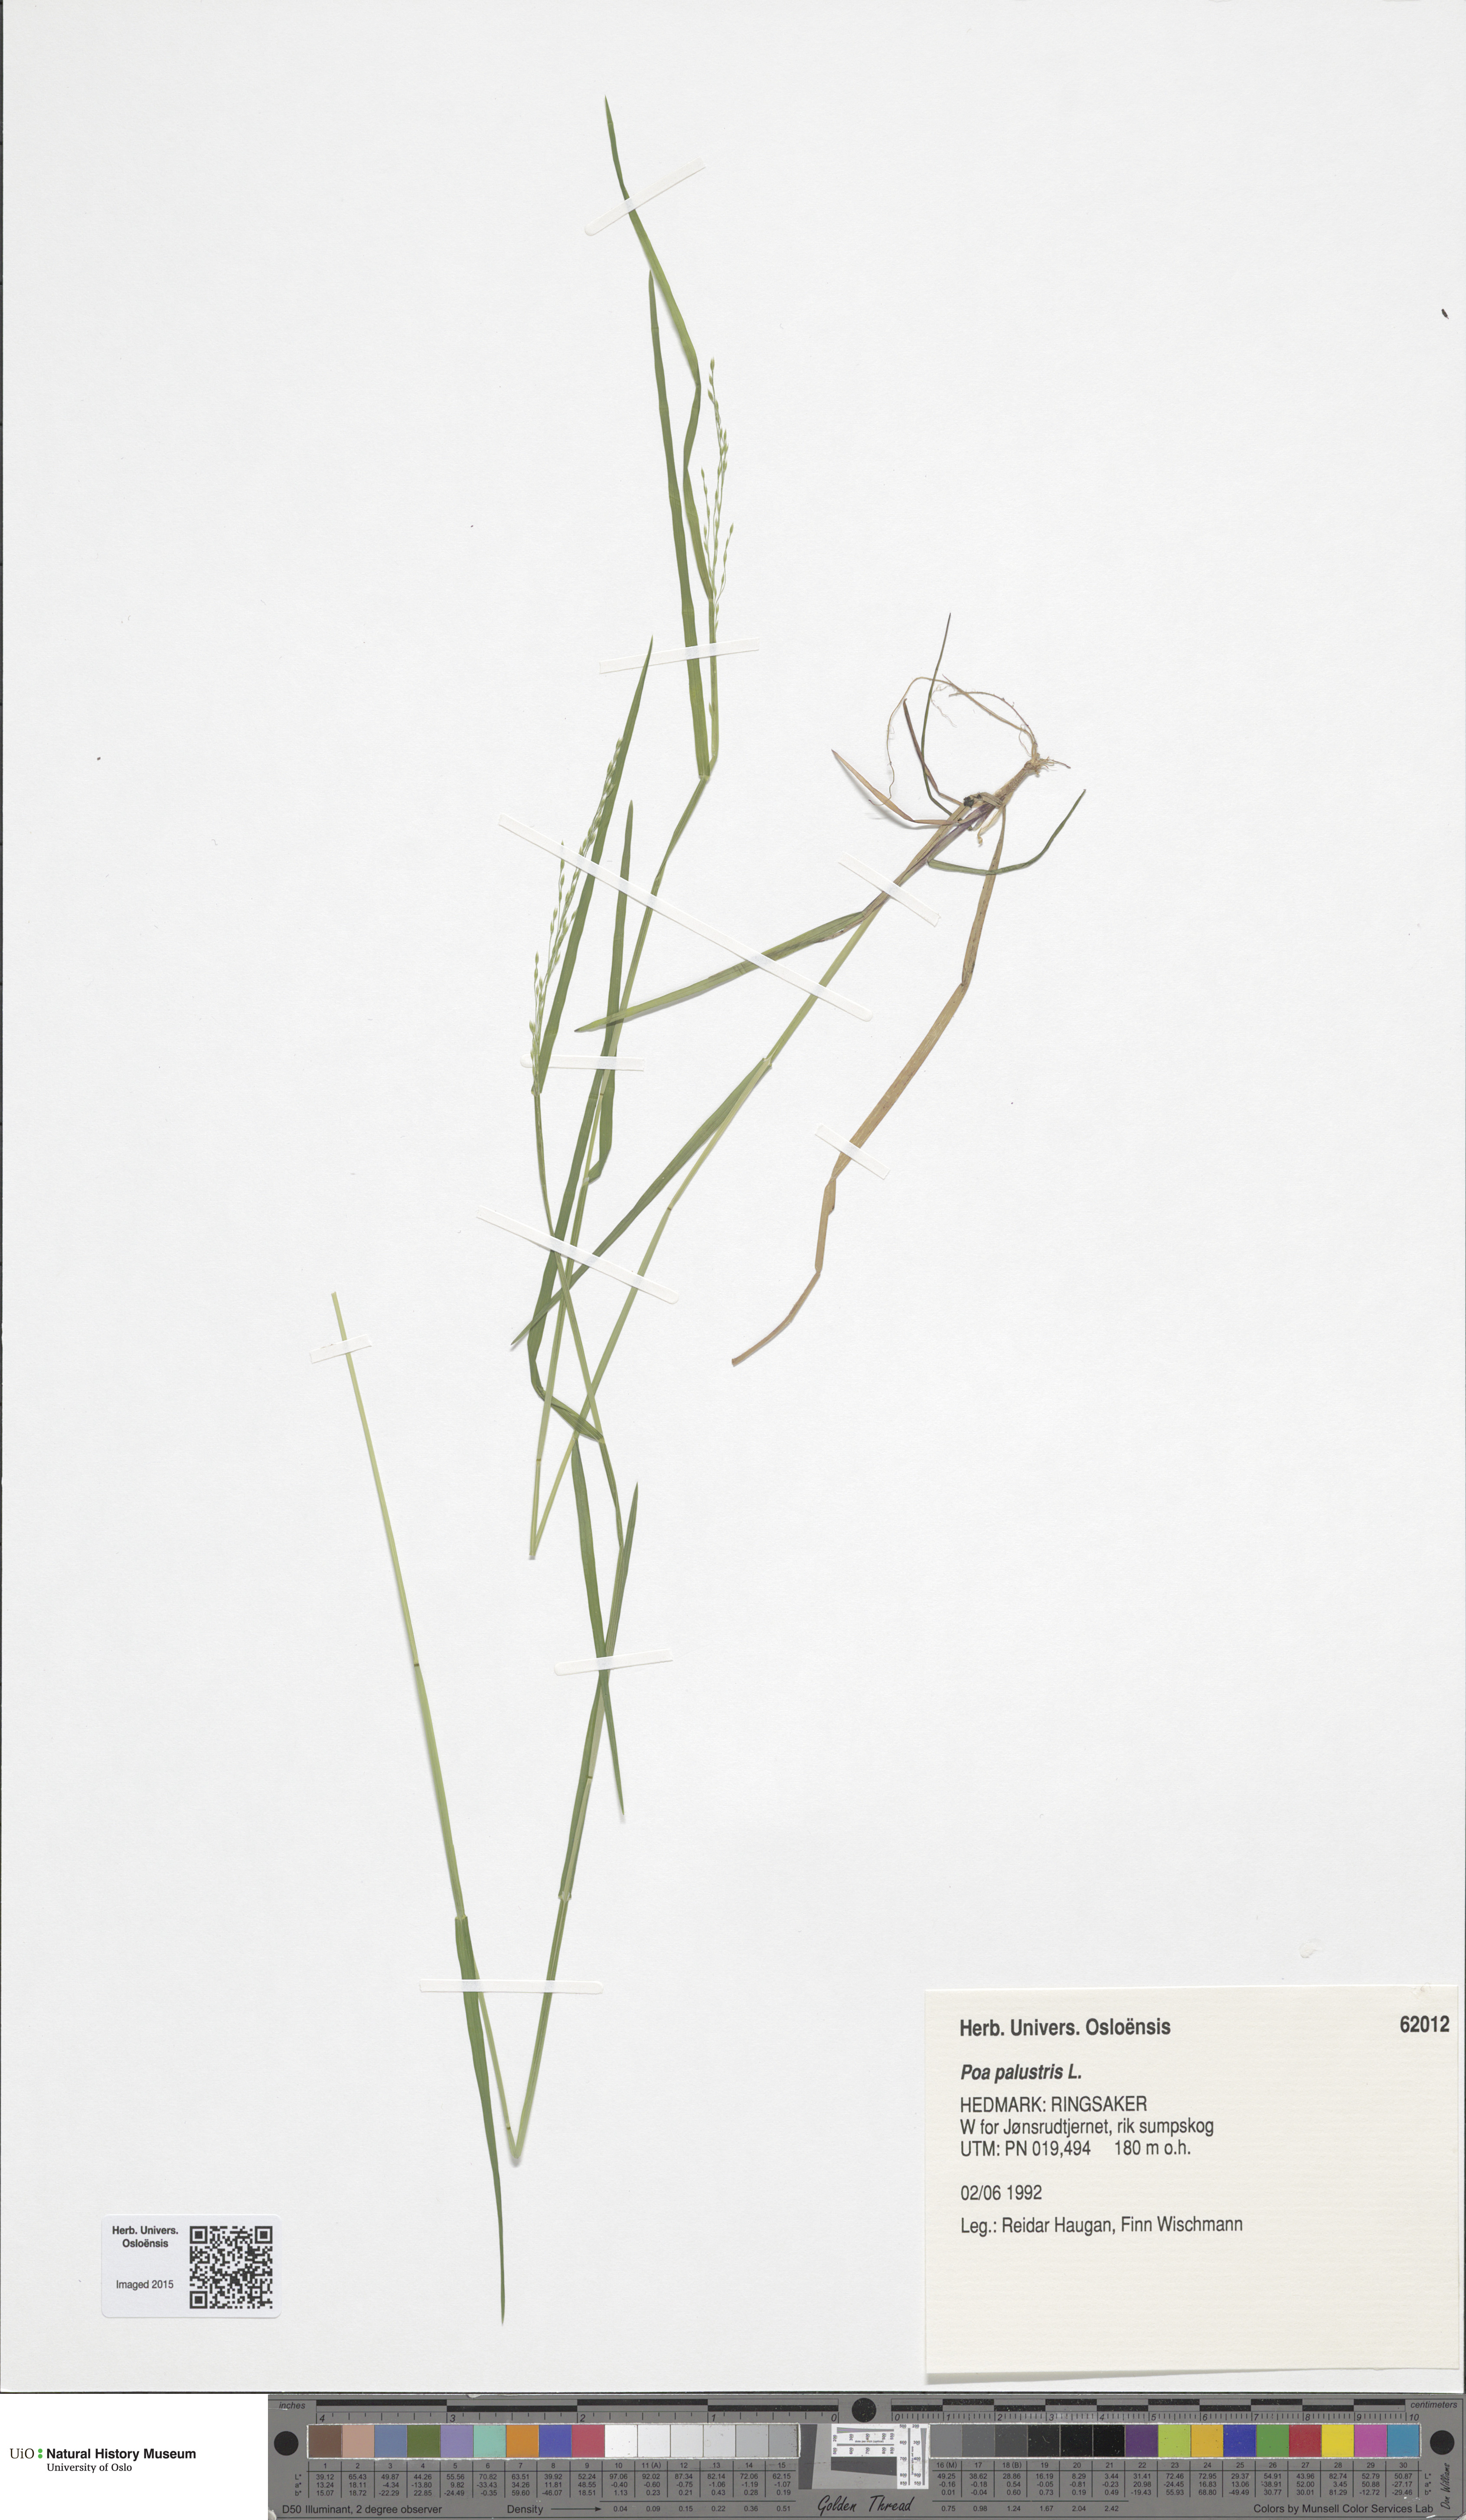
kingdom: Plantae
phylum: Tracheophyta
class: Liliopsida
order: Poales
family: Poaceae
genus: Poa
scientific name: Poa palustris
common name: Swamp meadow-grass
